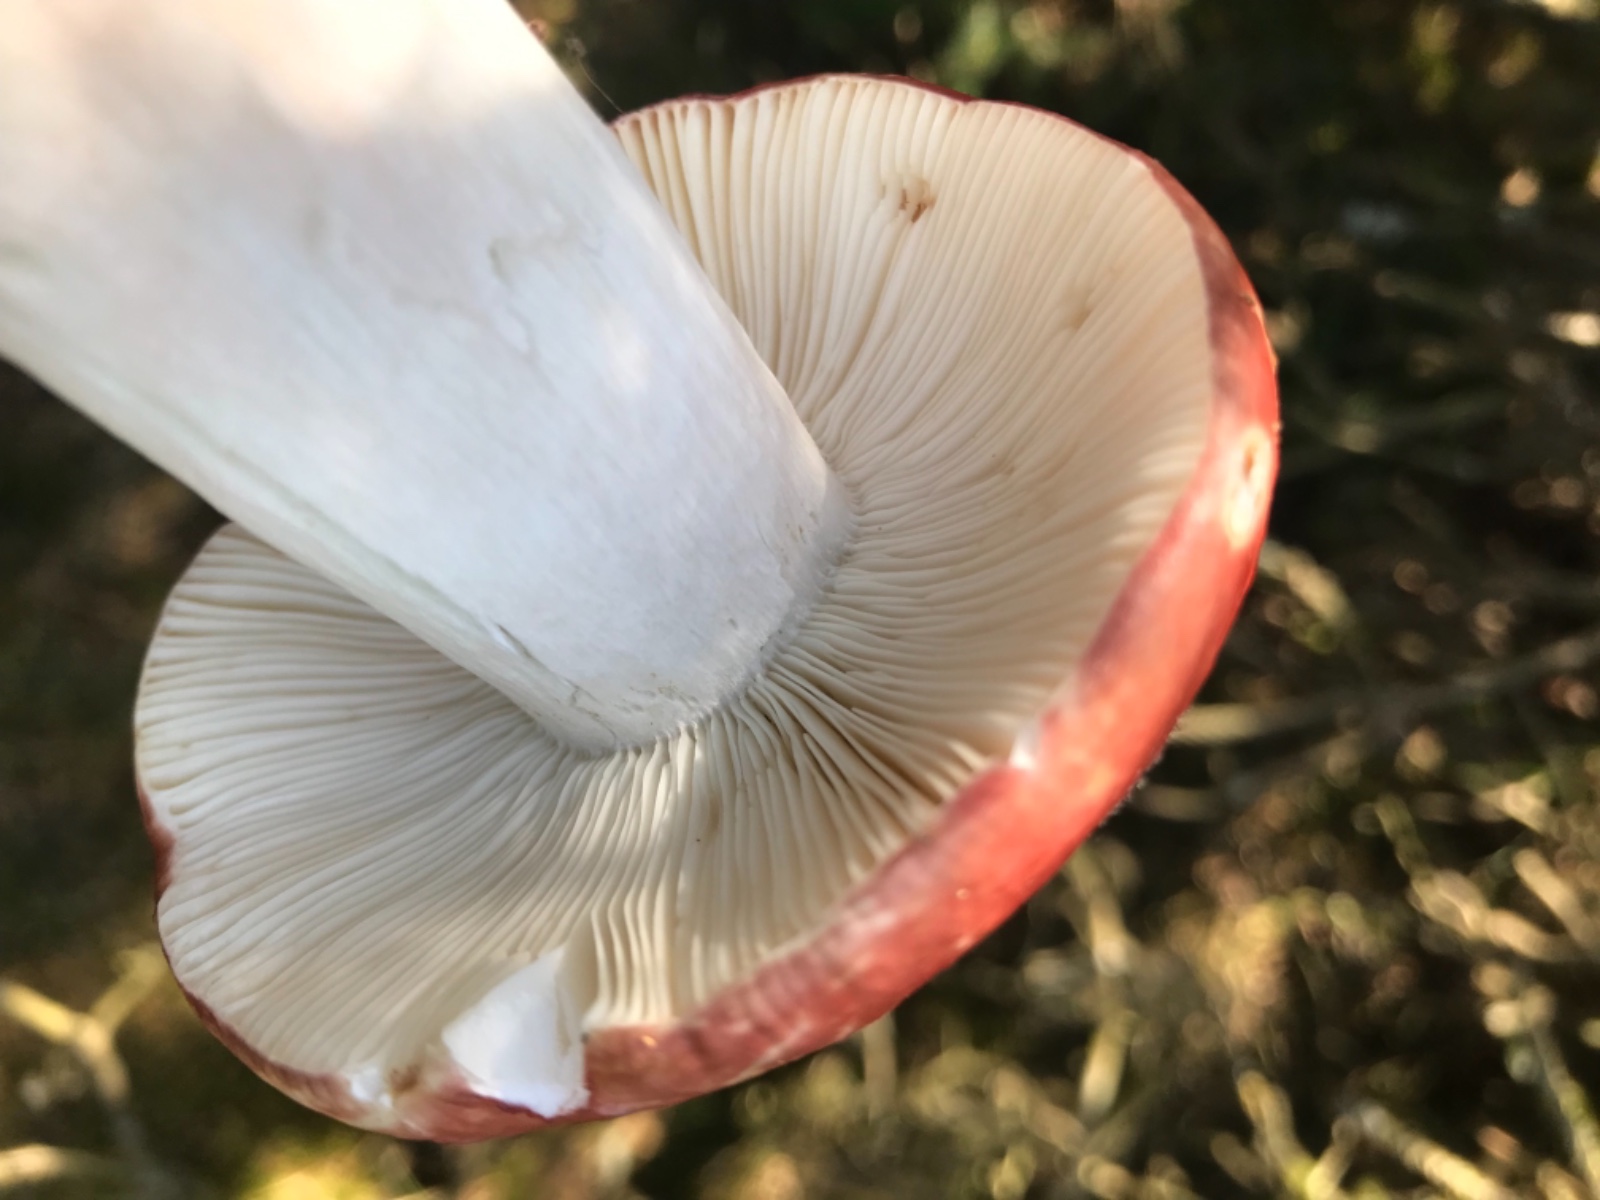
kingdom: Fungi
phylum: Basidiomycota
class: Agaricomycetes
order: Russulales
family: Russulaceae
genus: Russula
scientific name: Russula paludosa
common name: prægtig skørhat
